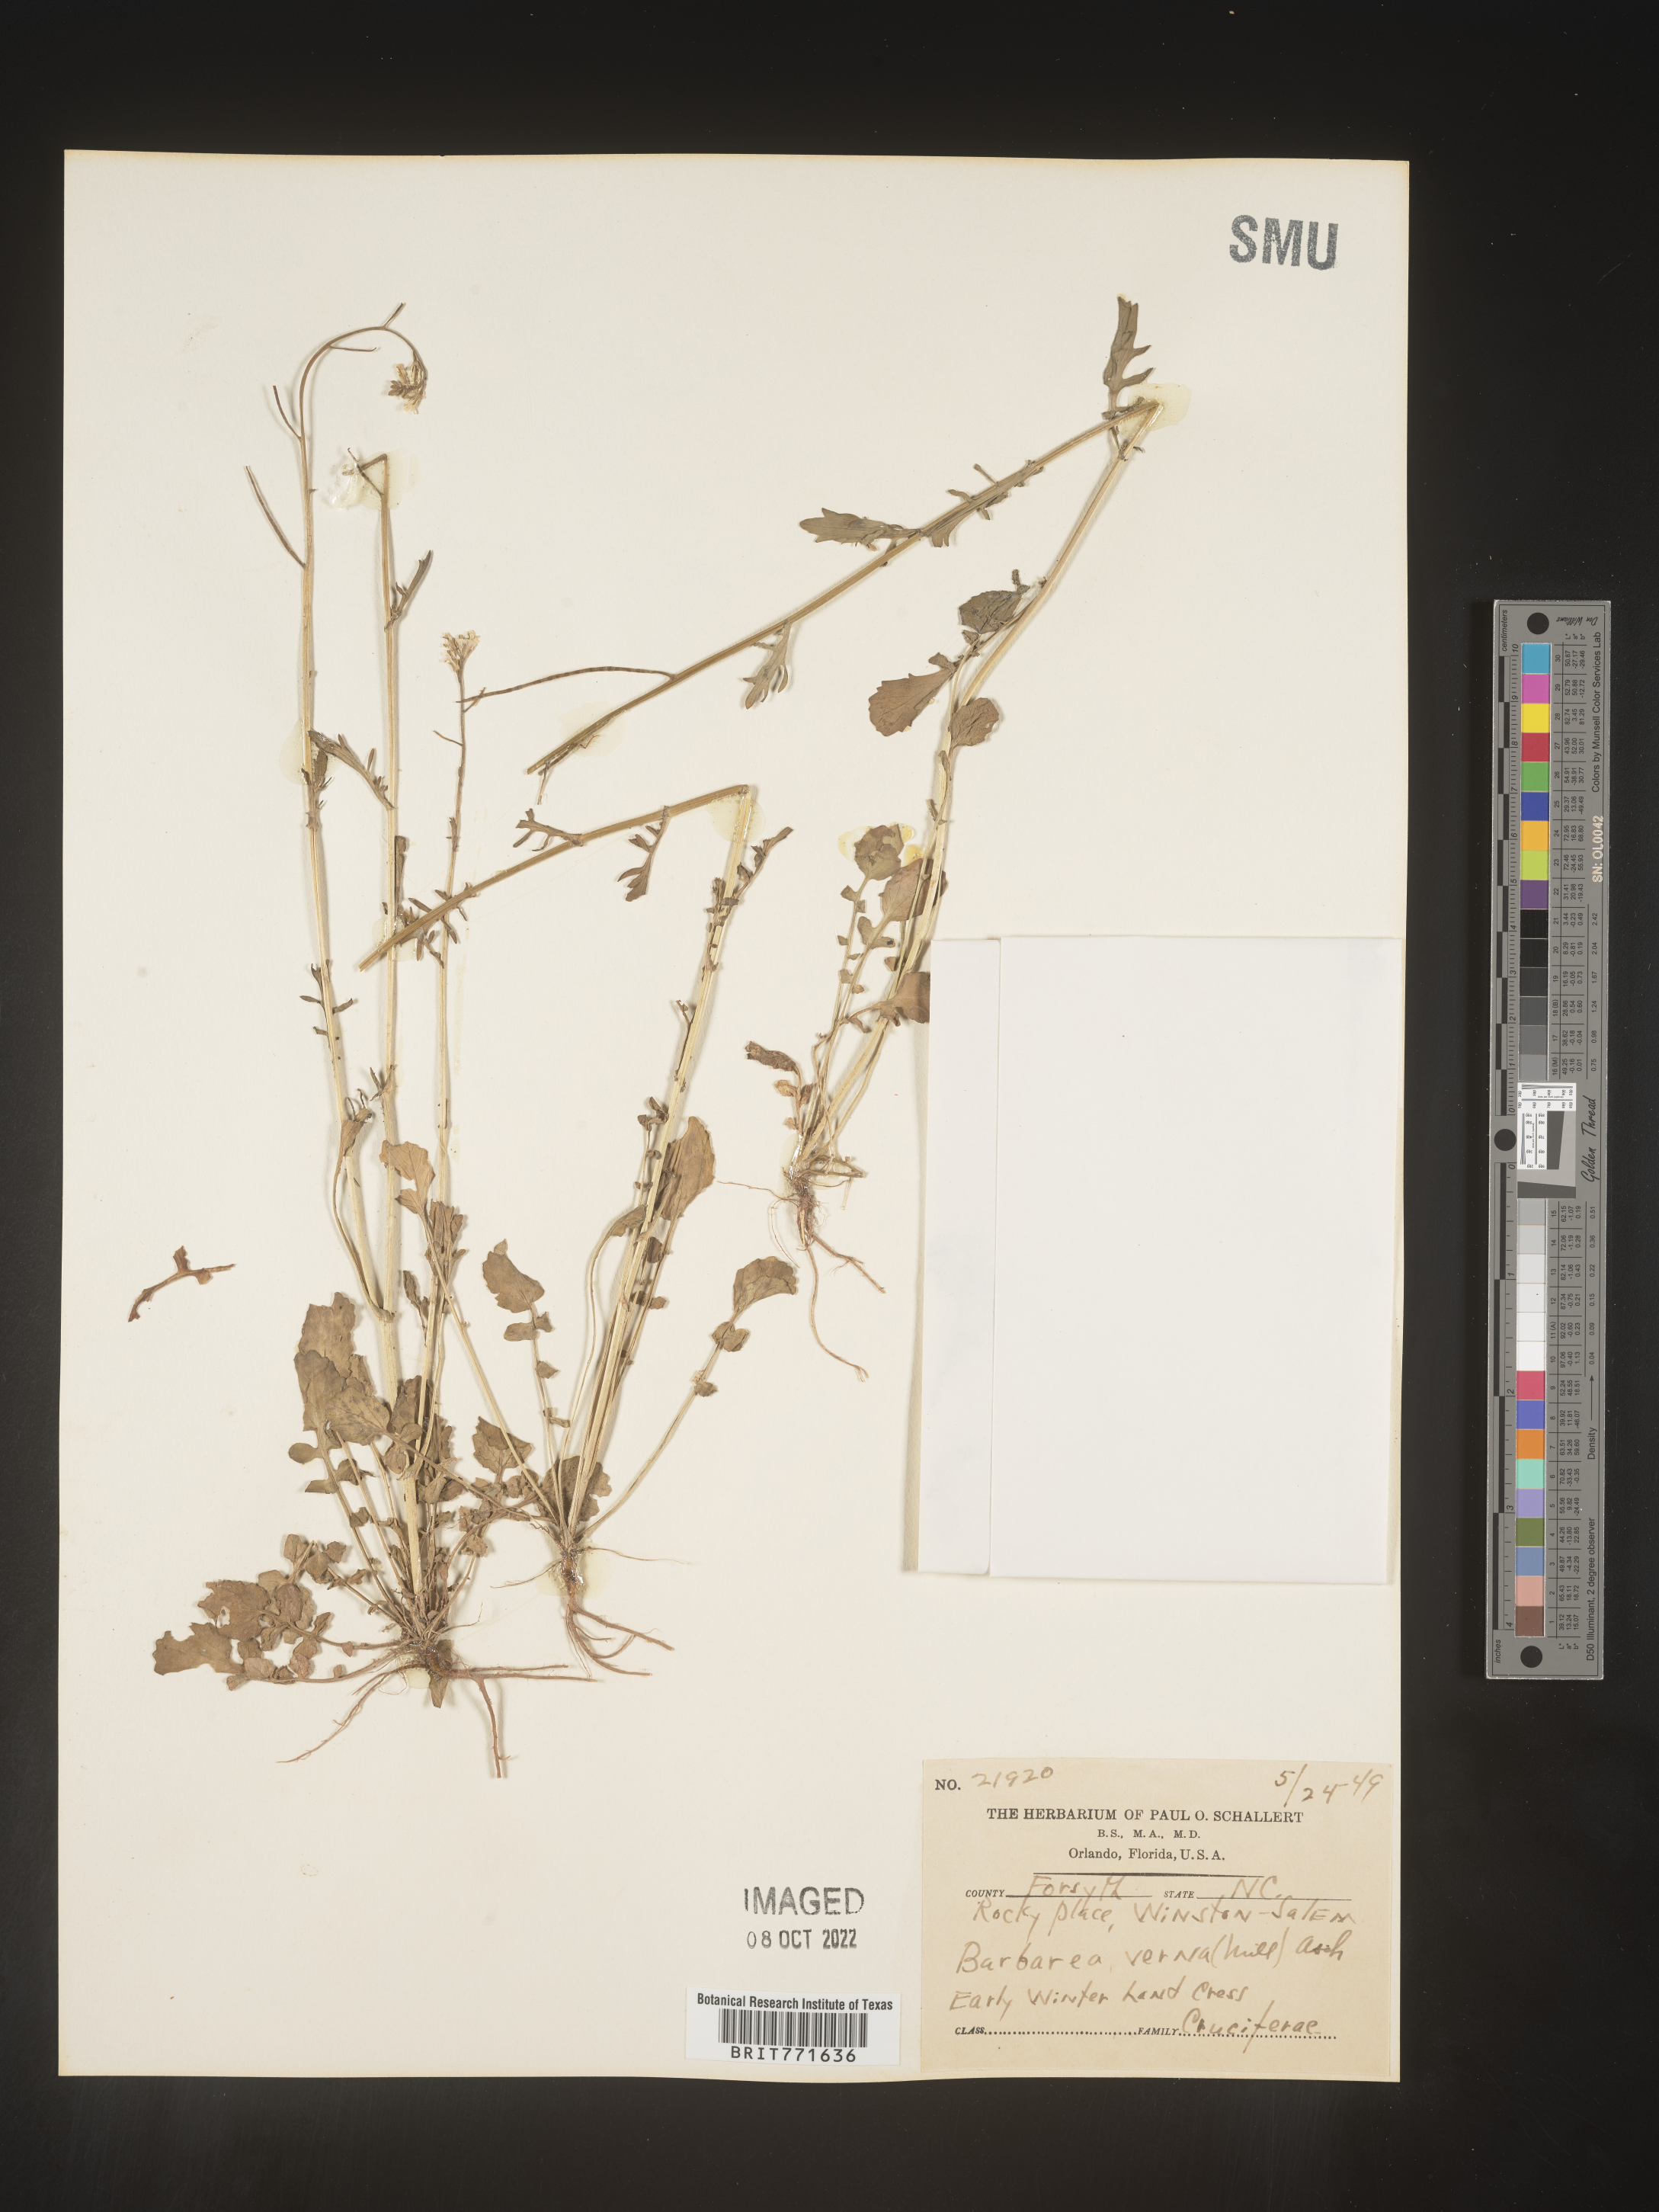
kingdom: Plantae
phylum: Tracheophyta
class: Magnoliopsida
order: Brassicales
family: Brassicaceae
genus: Barbarea
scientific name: Barbarea verna
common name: American cress
